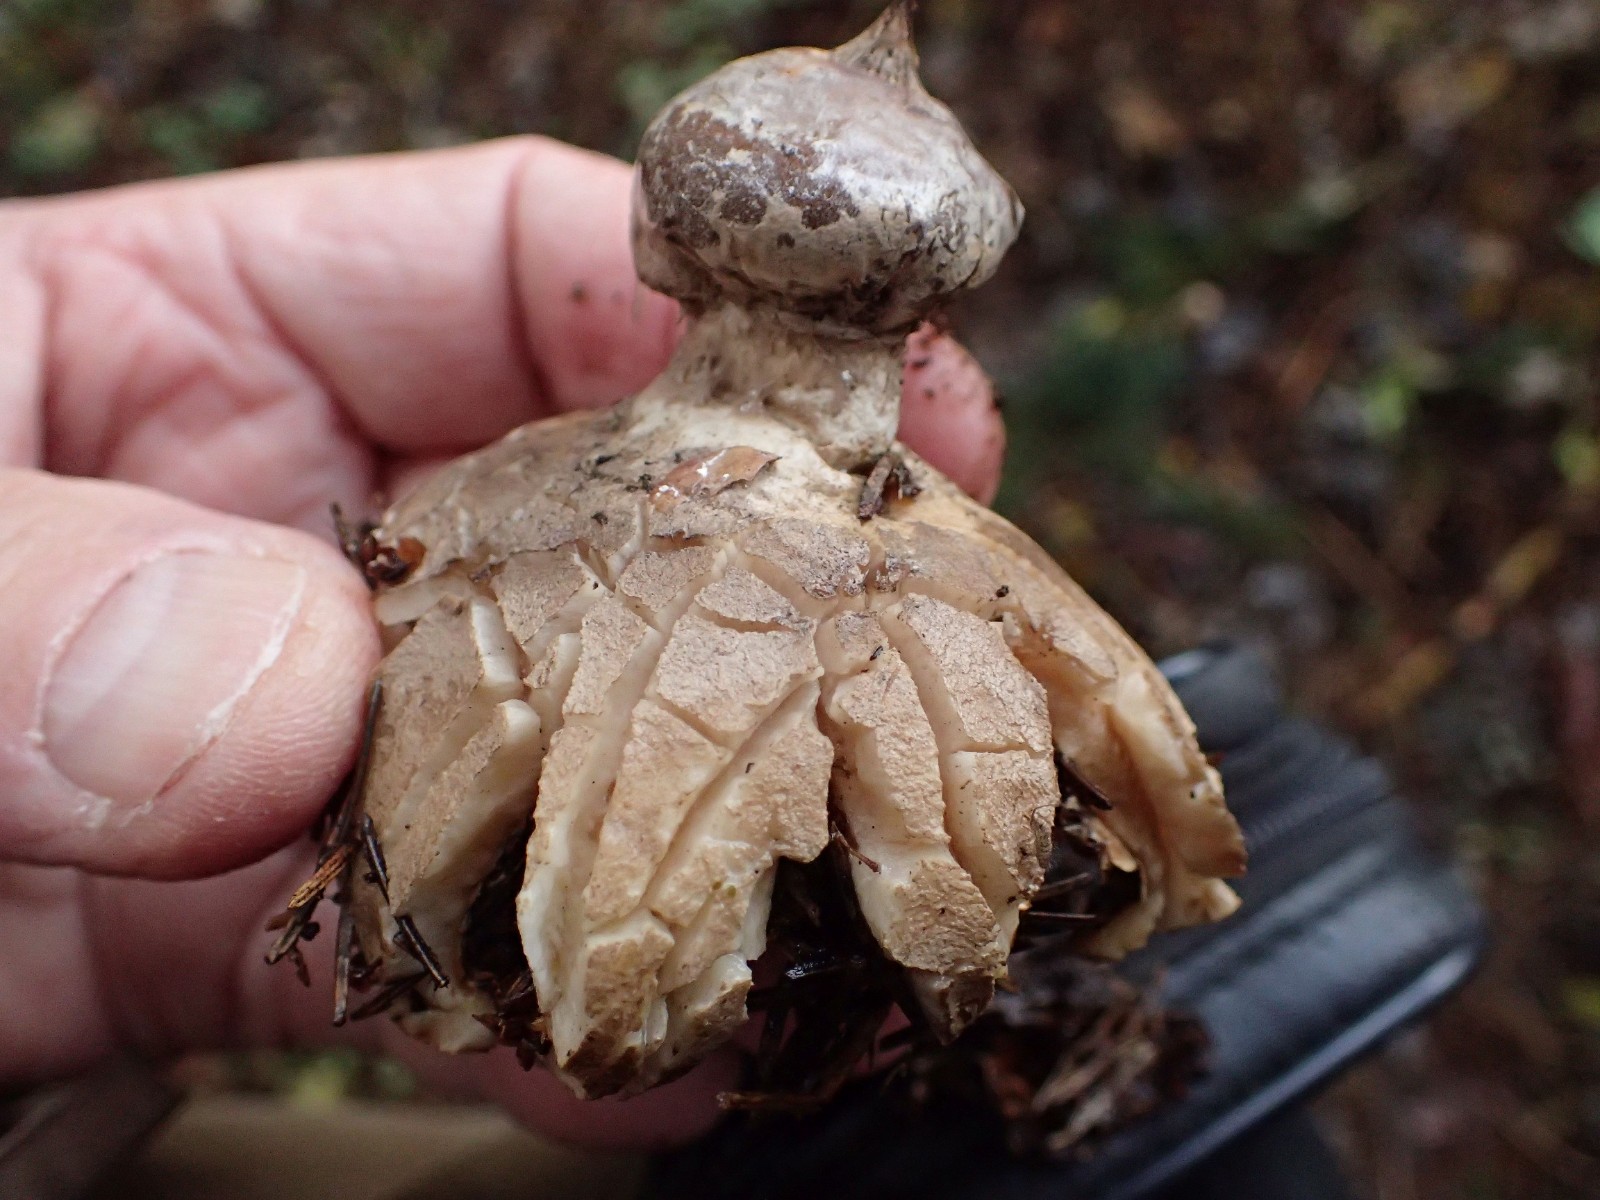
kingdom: Fungi
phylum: Basidiomycota
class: Agaricomycetes
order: Geastrales
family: Geastraceae
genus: Geastrum
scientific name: Geastrum striatum
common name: krave-stjernebold
